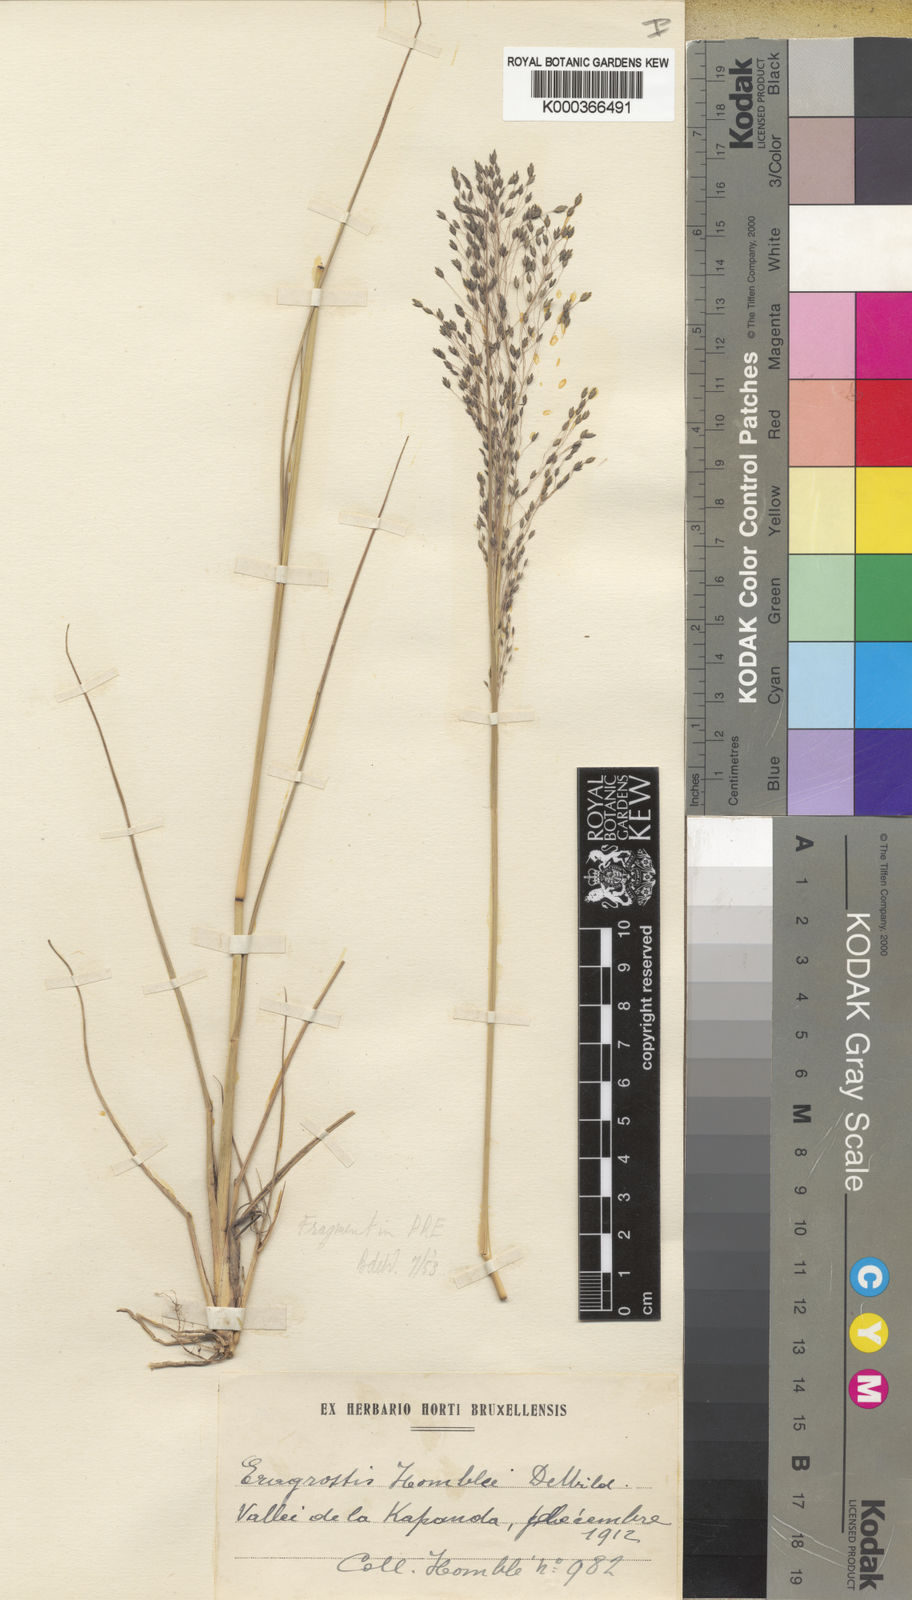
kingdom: Plantae
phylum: Tracheophyta
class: Liliopsida
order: Poales
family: Poaceae
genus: Eragrostis
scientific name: Eragrostis homblei
